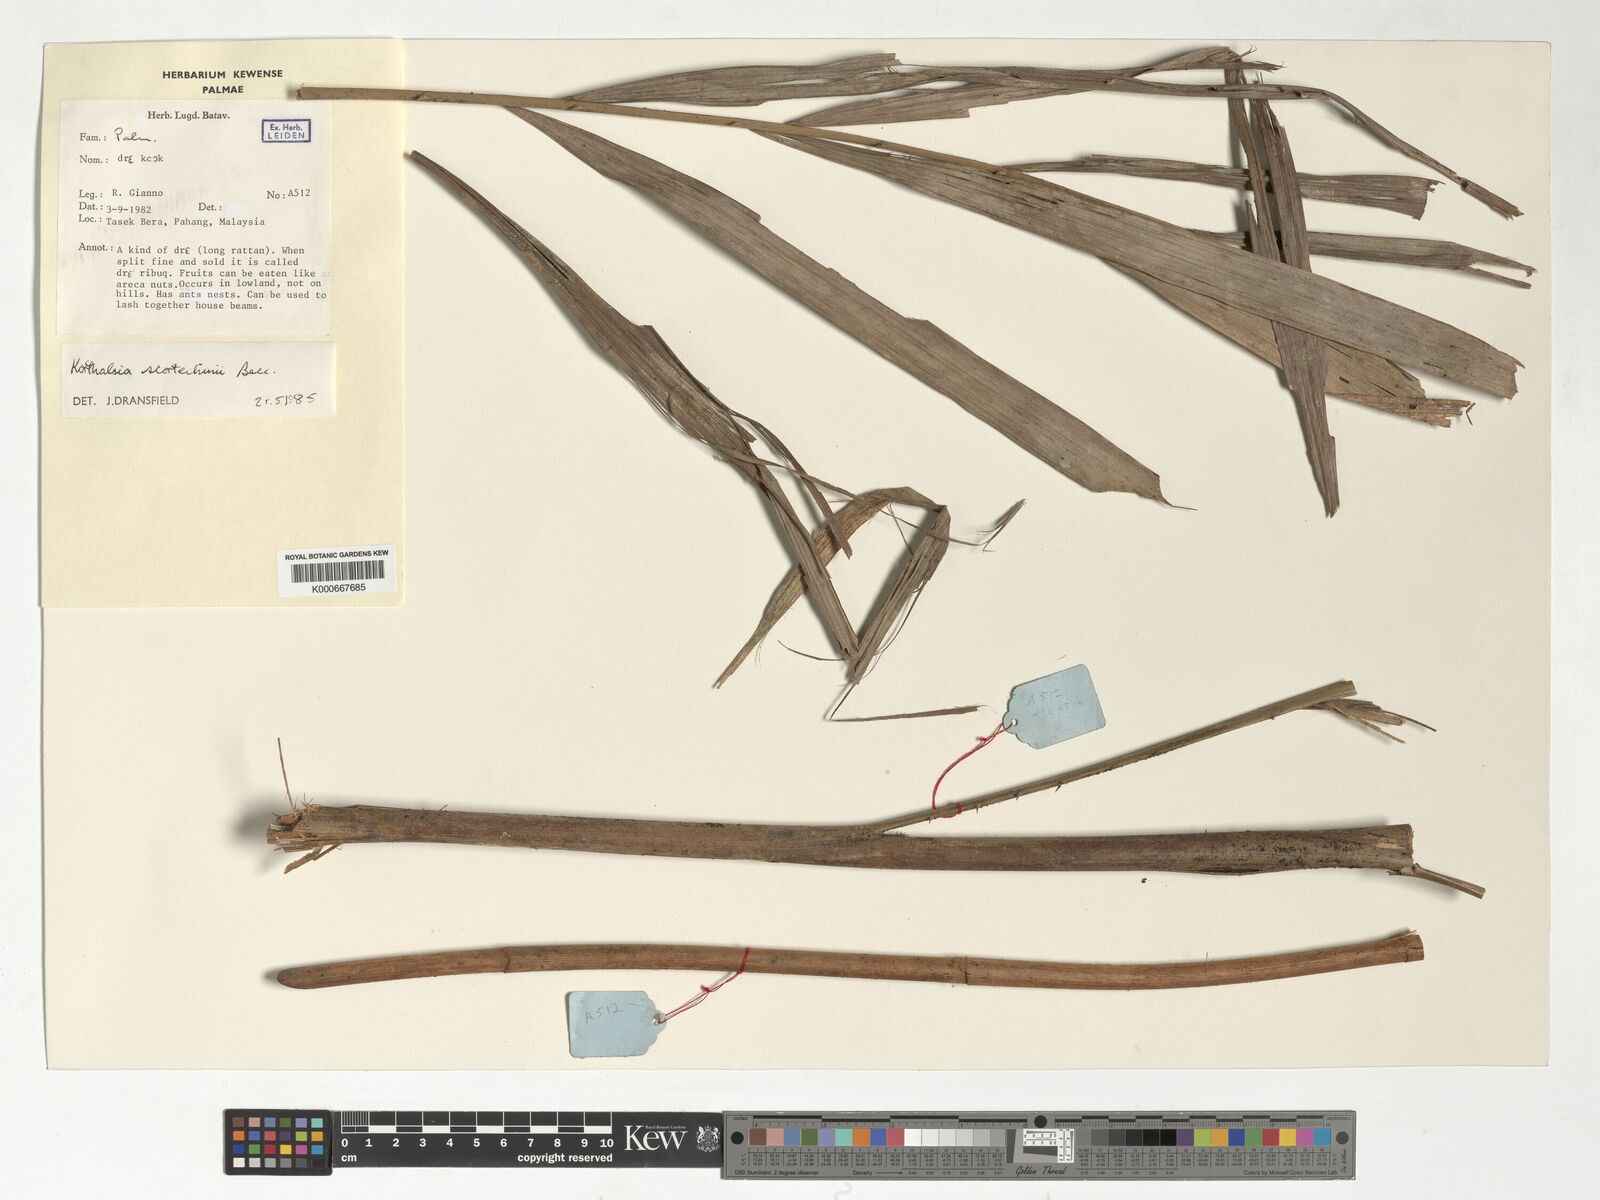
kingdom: Plantae
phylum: Tracheophyta
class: Liliopsida
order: Arecales
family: Arecaceae
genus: Korthalsia
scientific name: Korthalsia scortechinii
